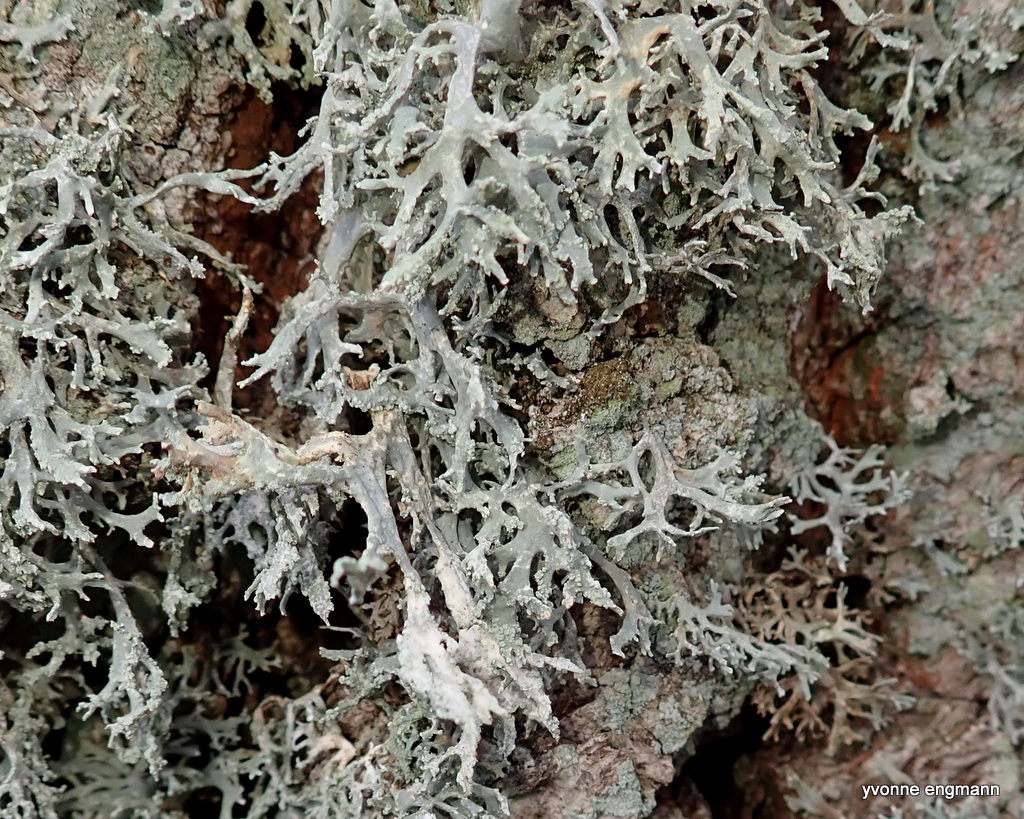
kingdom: Fungi
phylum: Ascomycota
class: Lecanoromycetes
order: Lecanorales
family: Parmeliaceae
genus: Evernia
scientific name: Evernia prunastri
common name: almindelig slåenlav
